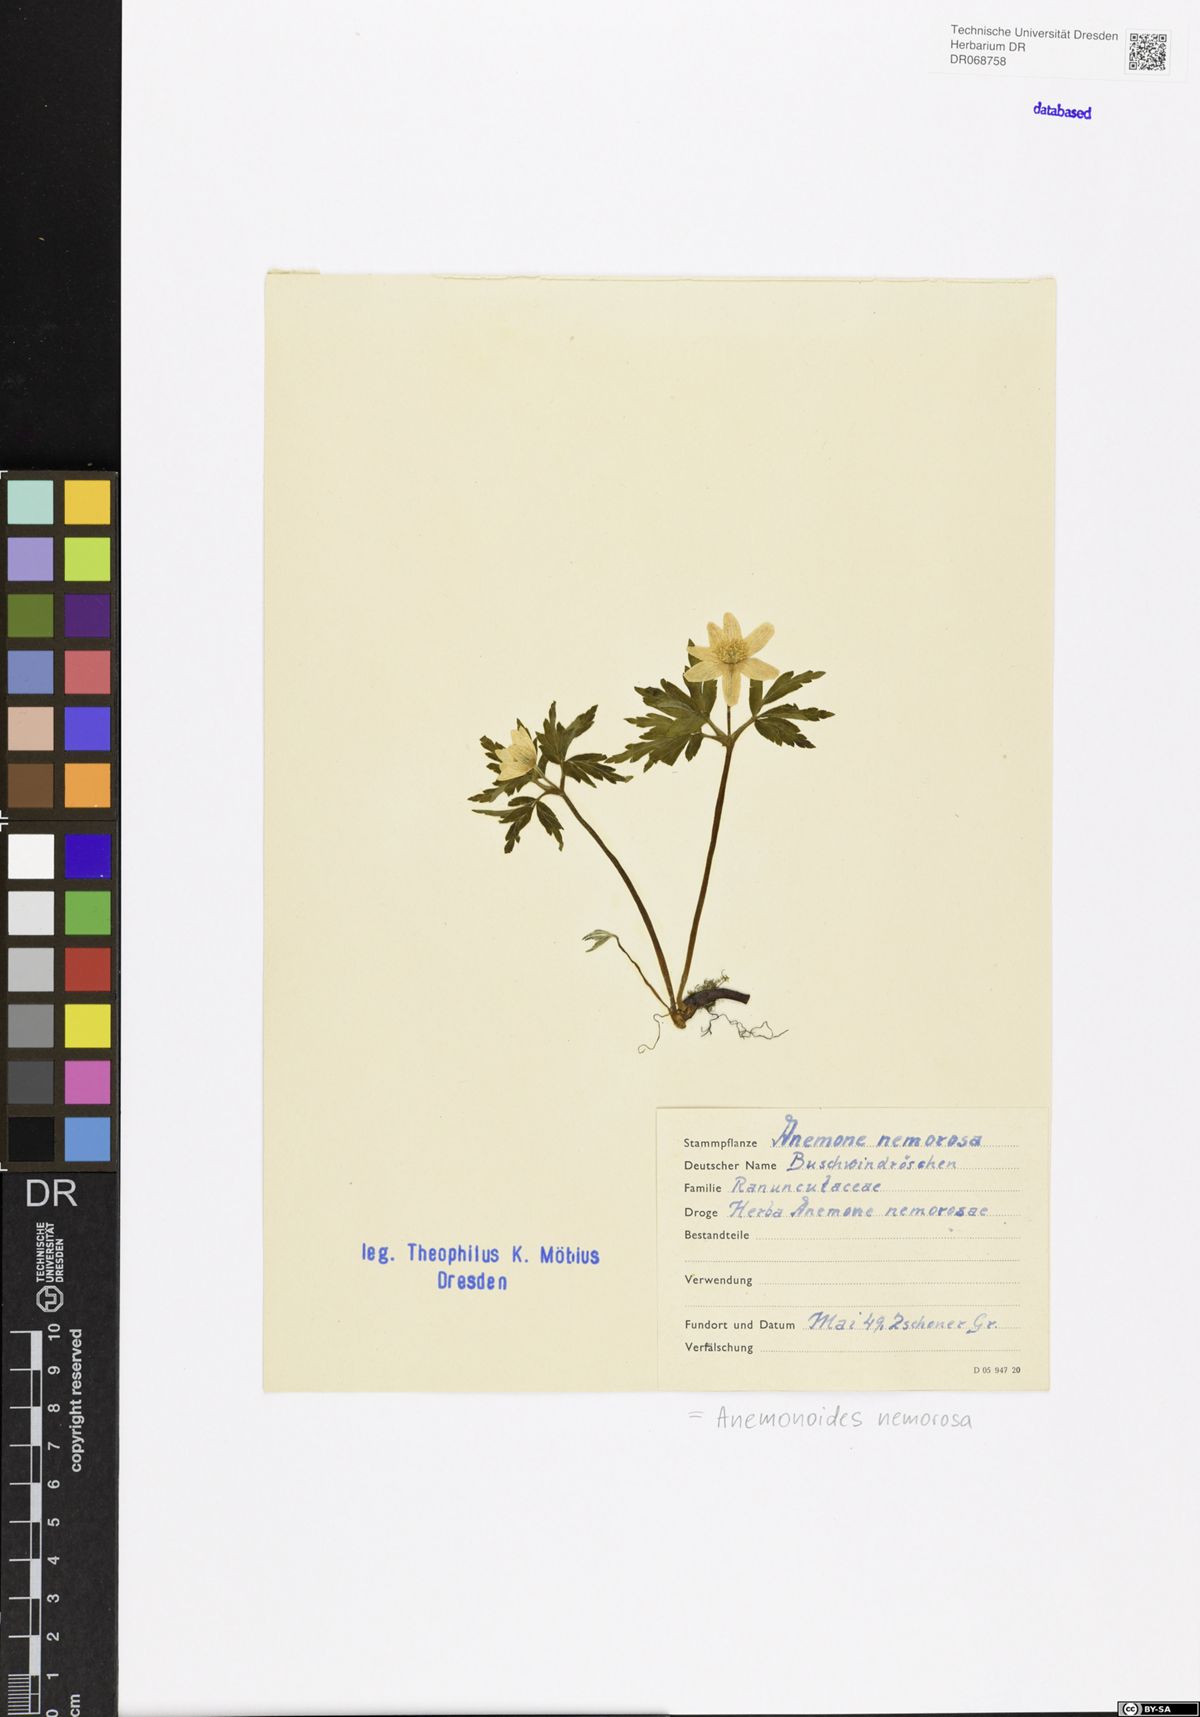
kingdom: Plantae
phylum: Tracheophyta
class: Magnoliopsida
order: Ranunculales
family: Ranunculaceae
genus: Anemone
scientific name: Anemone nemorosa
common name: Wood anemone
